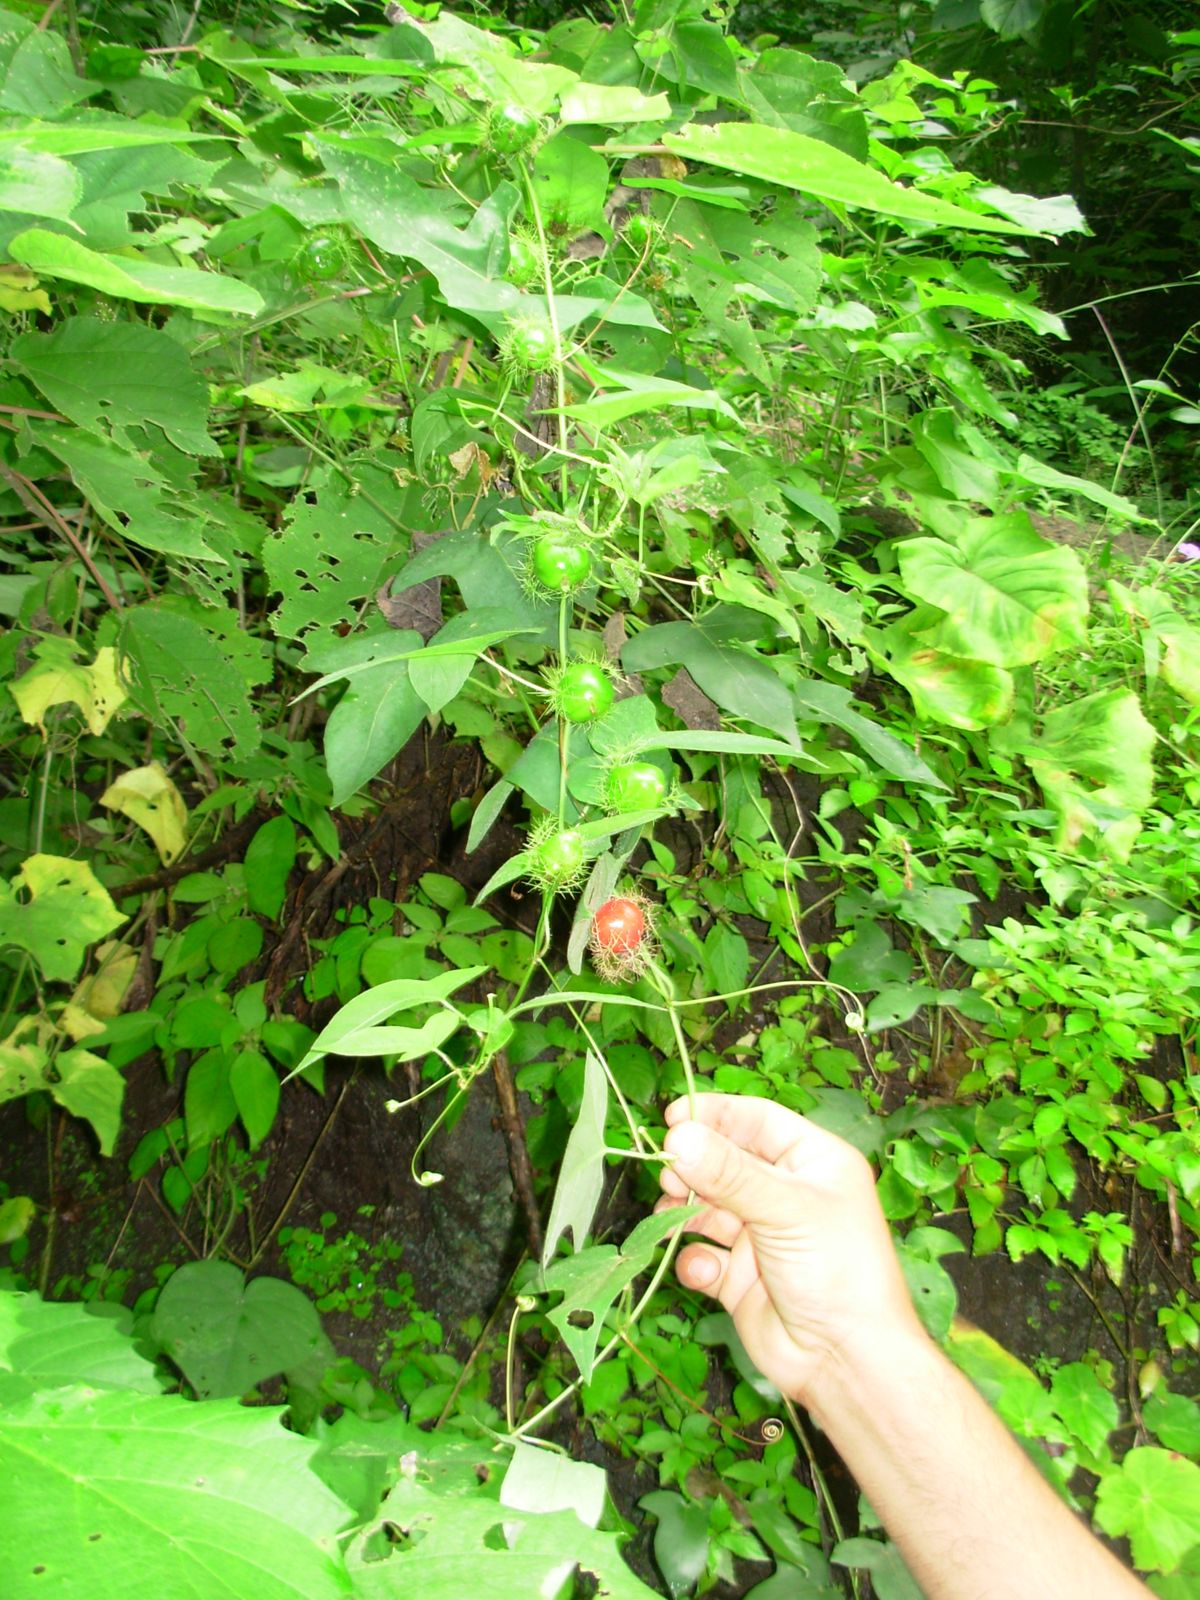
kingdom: Plantae
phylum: Tracheophyta
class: Magnoliopsida
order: Malpighiales
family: Passifloraceae
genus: Passiflora
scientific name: Passiflora foetida
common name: Fetid passionflower
